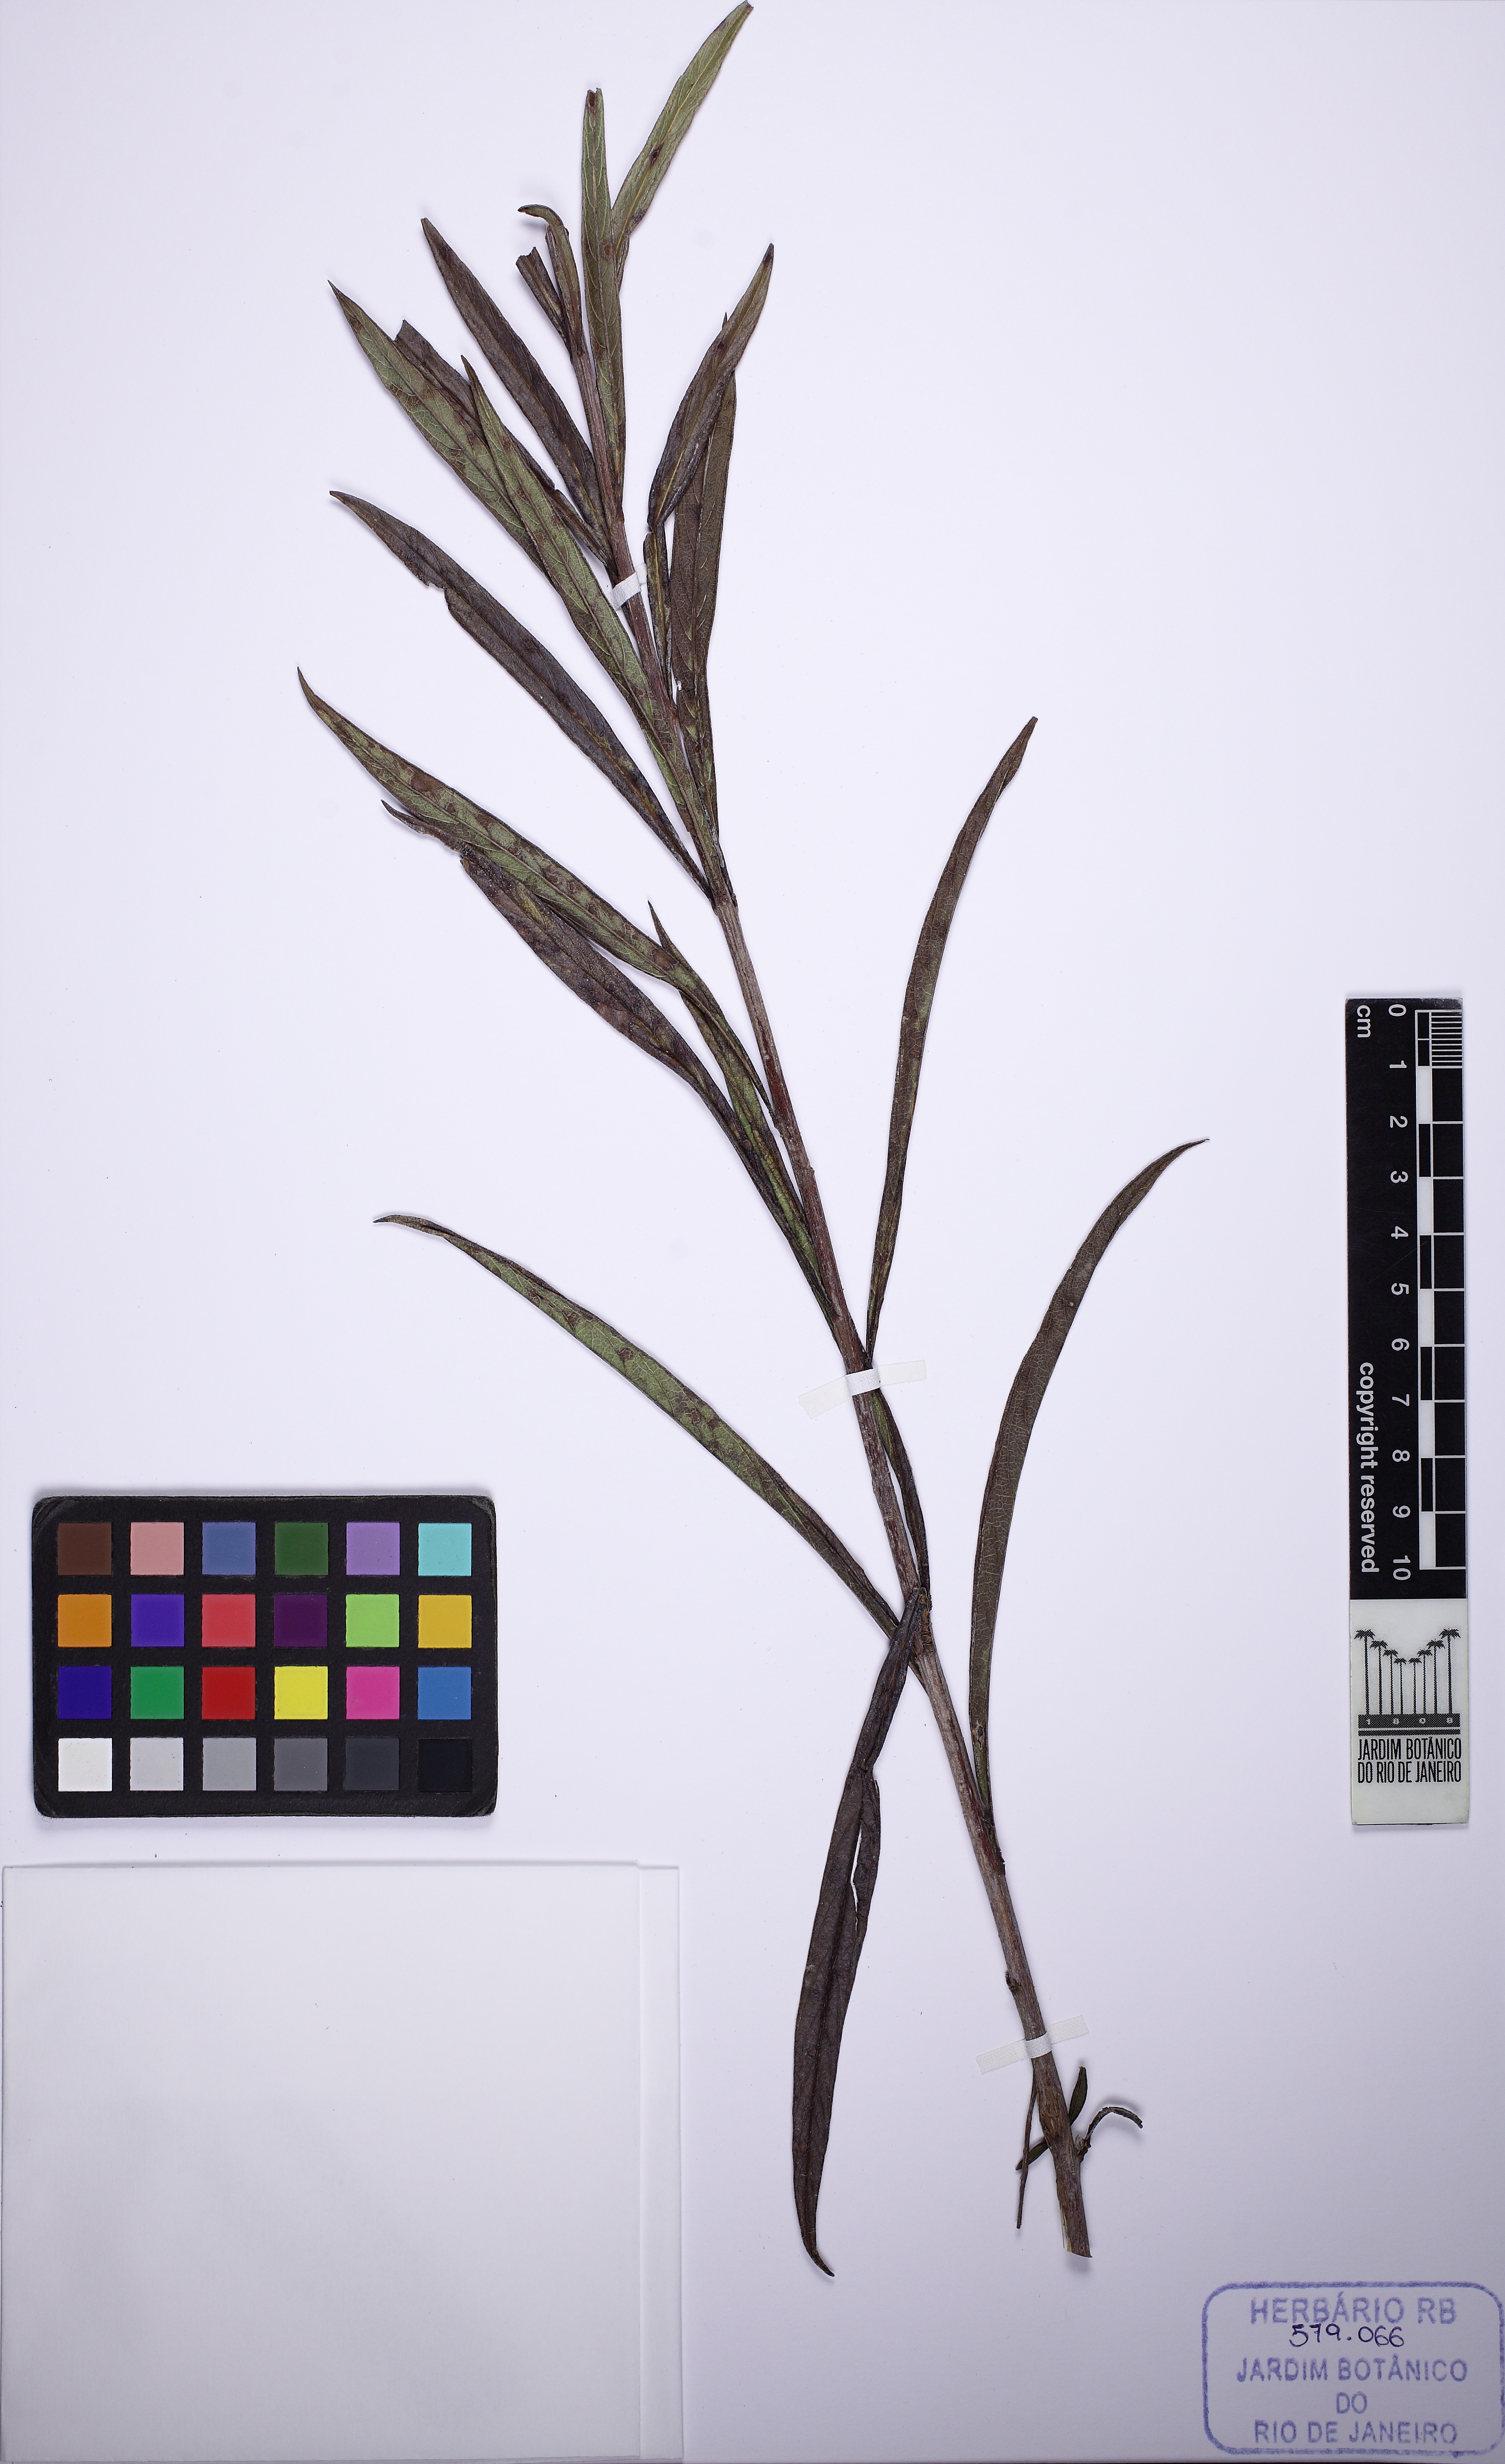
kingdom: Plantae
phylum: Tracheophyta
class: Magnoliopsida
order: Asterales
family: Asteraceae
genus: Vernonia
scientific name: Vernonia
